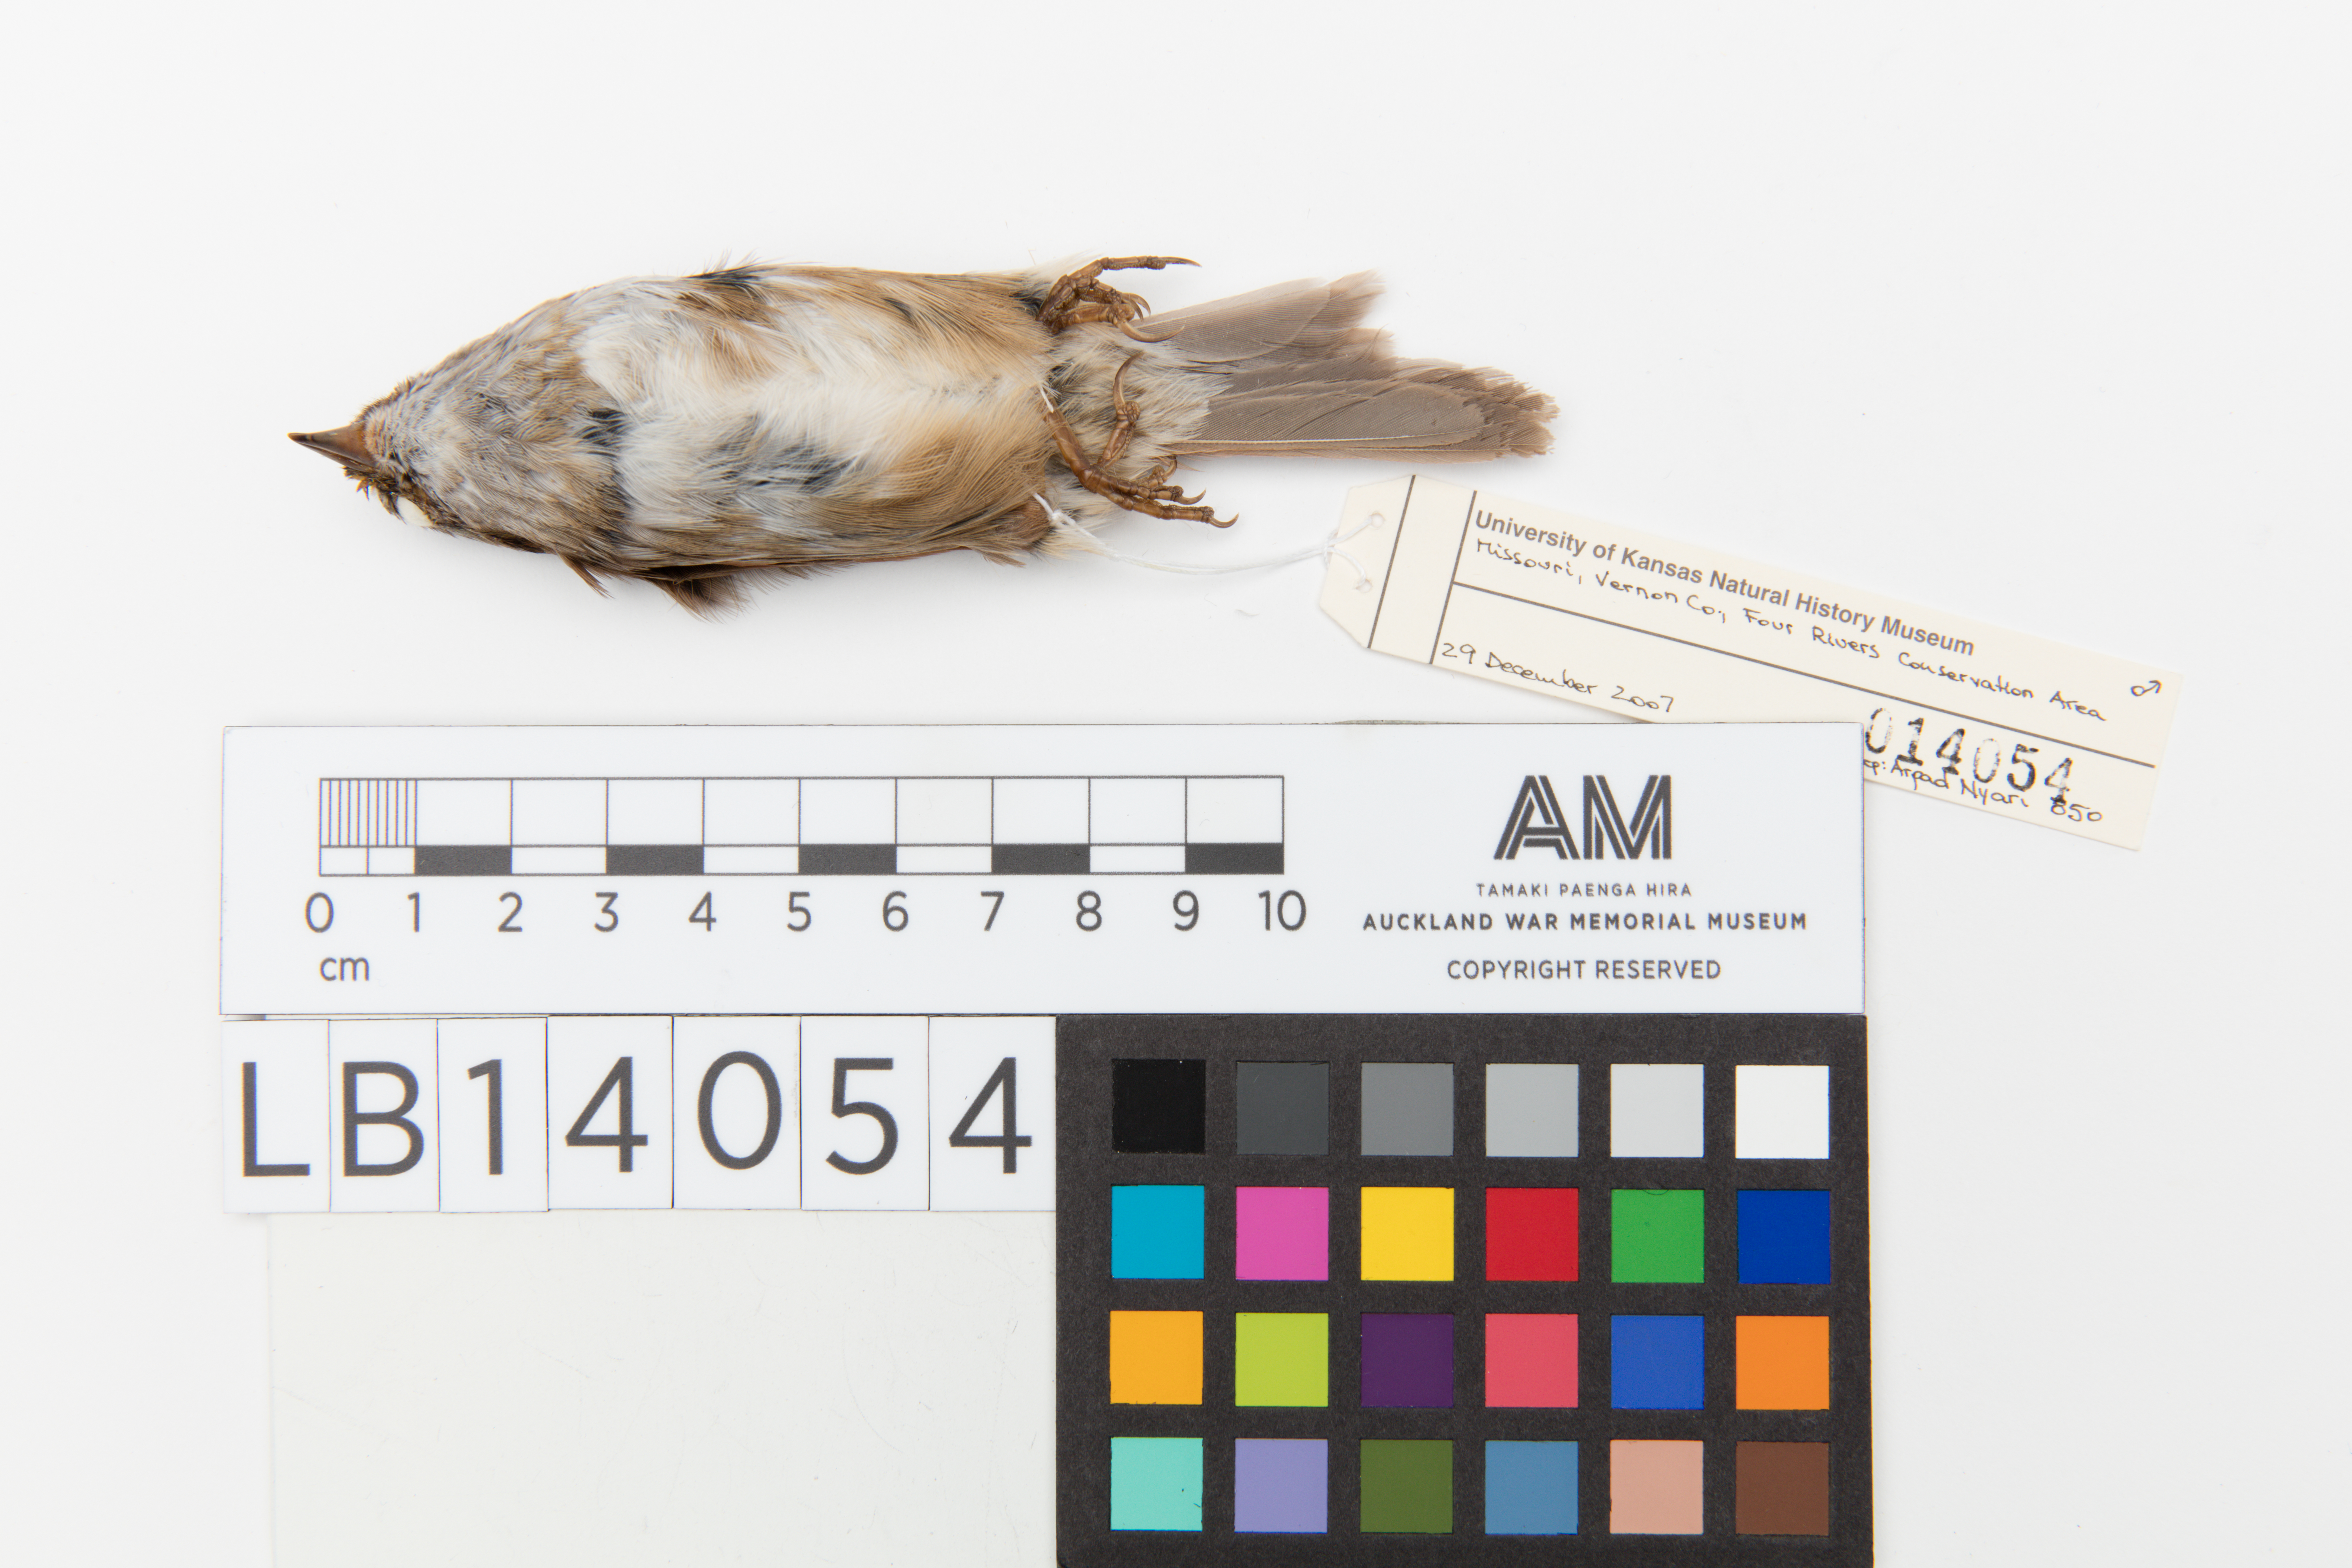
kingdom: Animalia
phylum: Chordata
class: Aves
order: Passeriformes
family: Passerellidae
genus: Melospiza
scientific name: Melospiza georgiana
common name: Swamp sparrow
